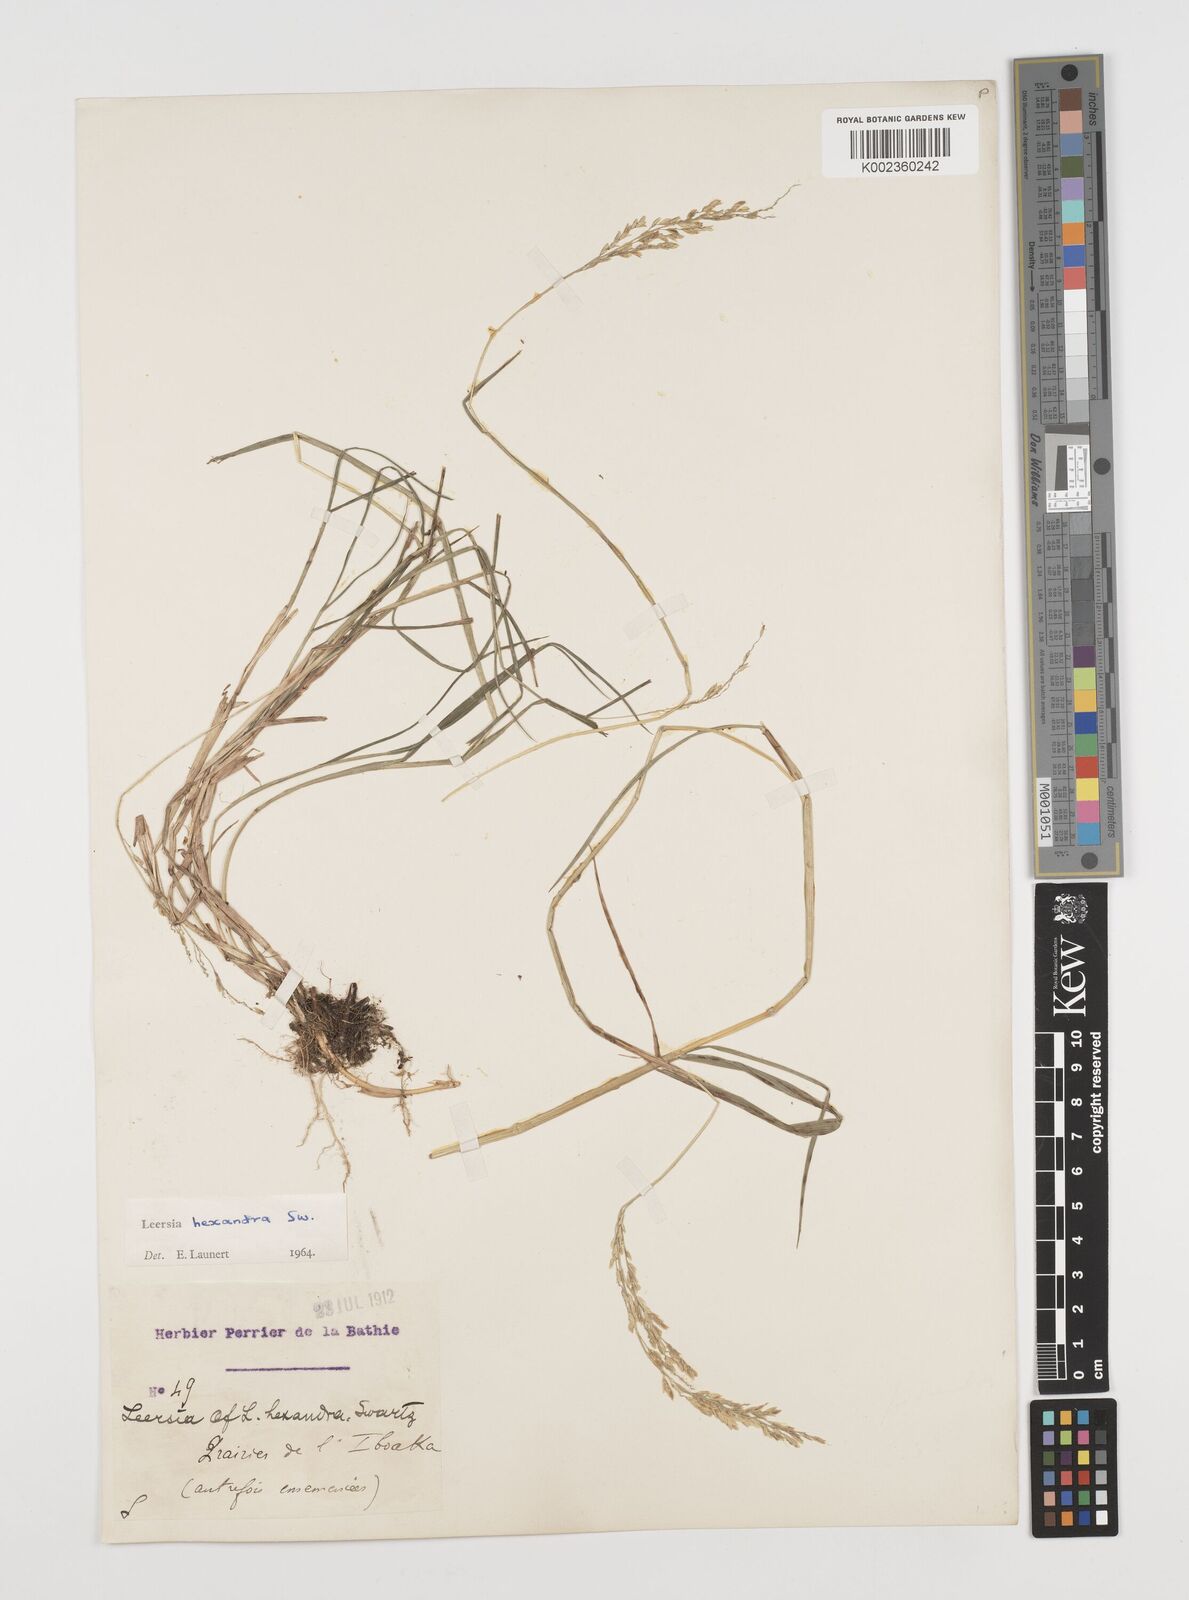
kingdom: Plantae
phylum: Tracheophyta
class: Liliopsida
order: Poales
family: Poaceae
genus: Leersia
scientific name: Leersia hexandra
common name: Southern cut grass
